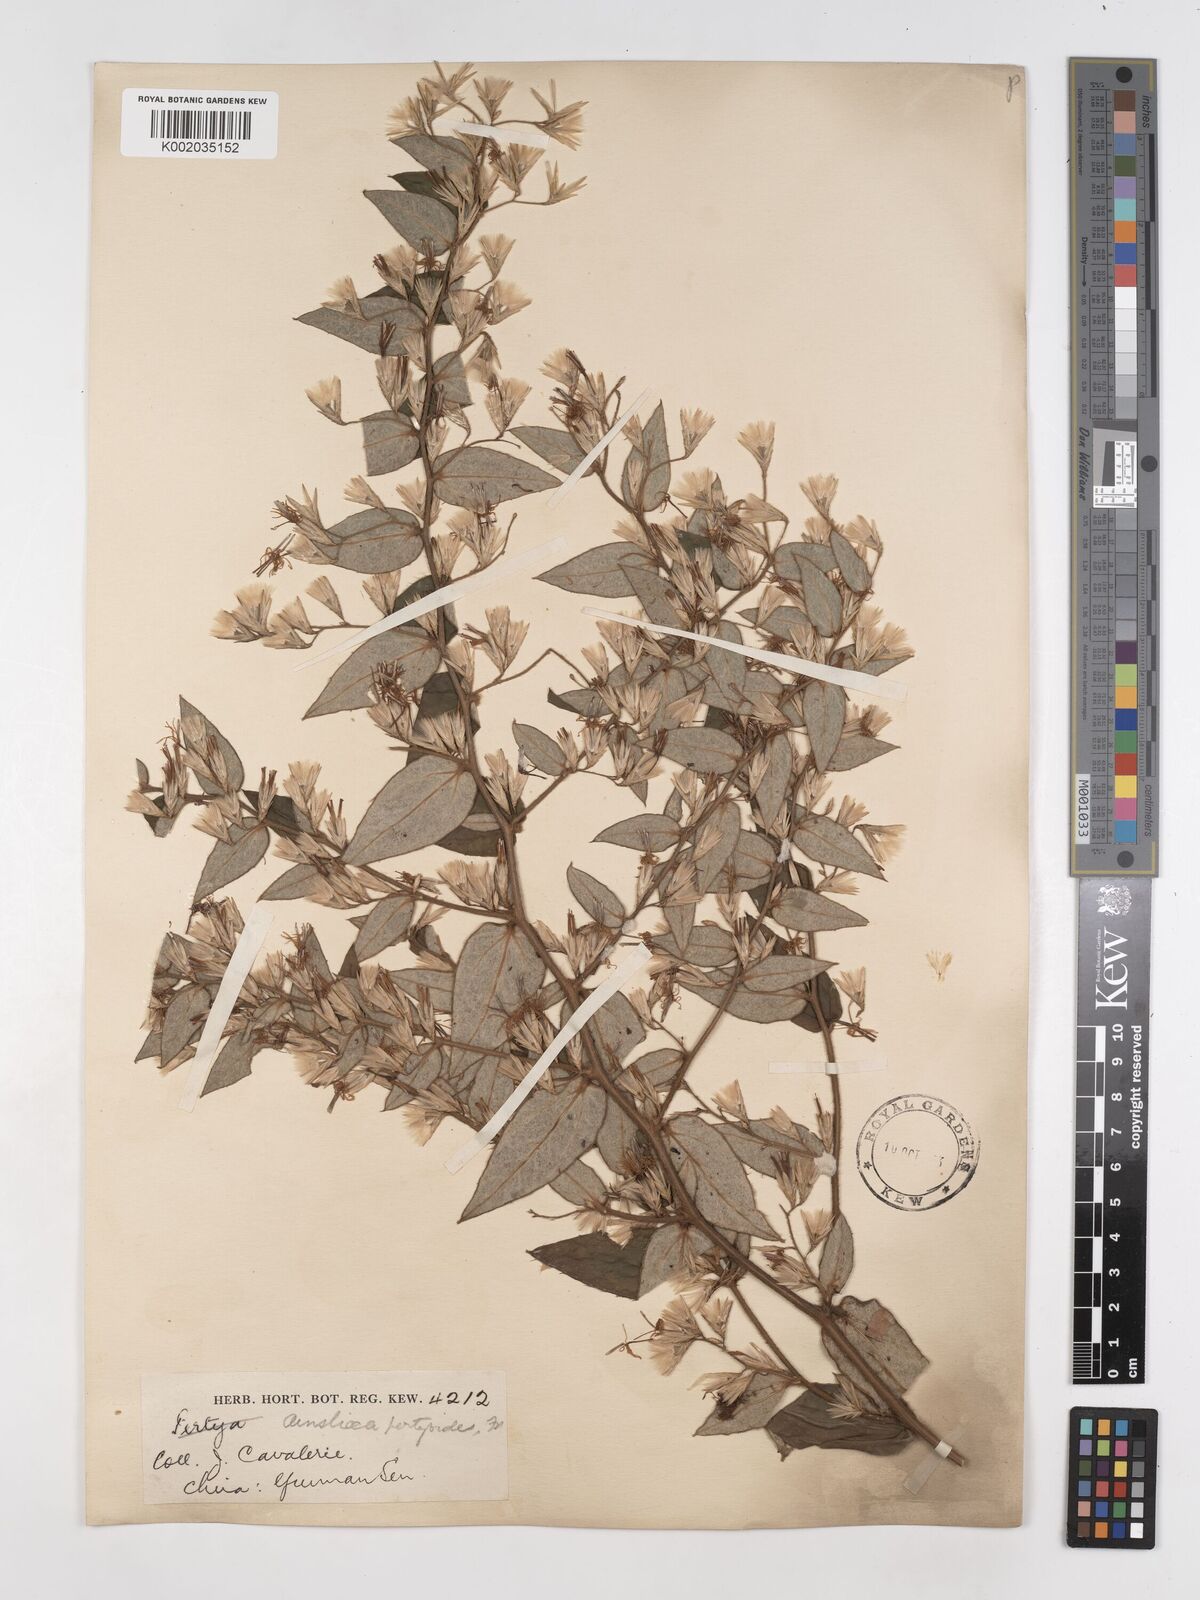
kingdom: Plantae
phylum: Tracheophyta
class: Magnoliopsida
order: Asterales
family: Asteraceae
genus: Ainsliaea
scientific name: Ainsliaea pertyoides
